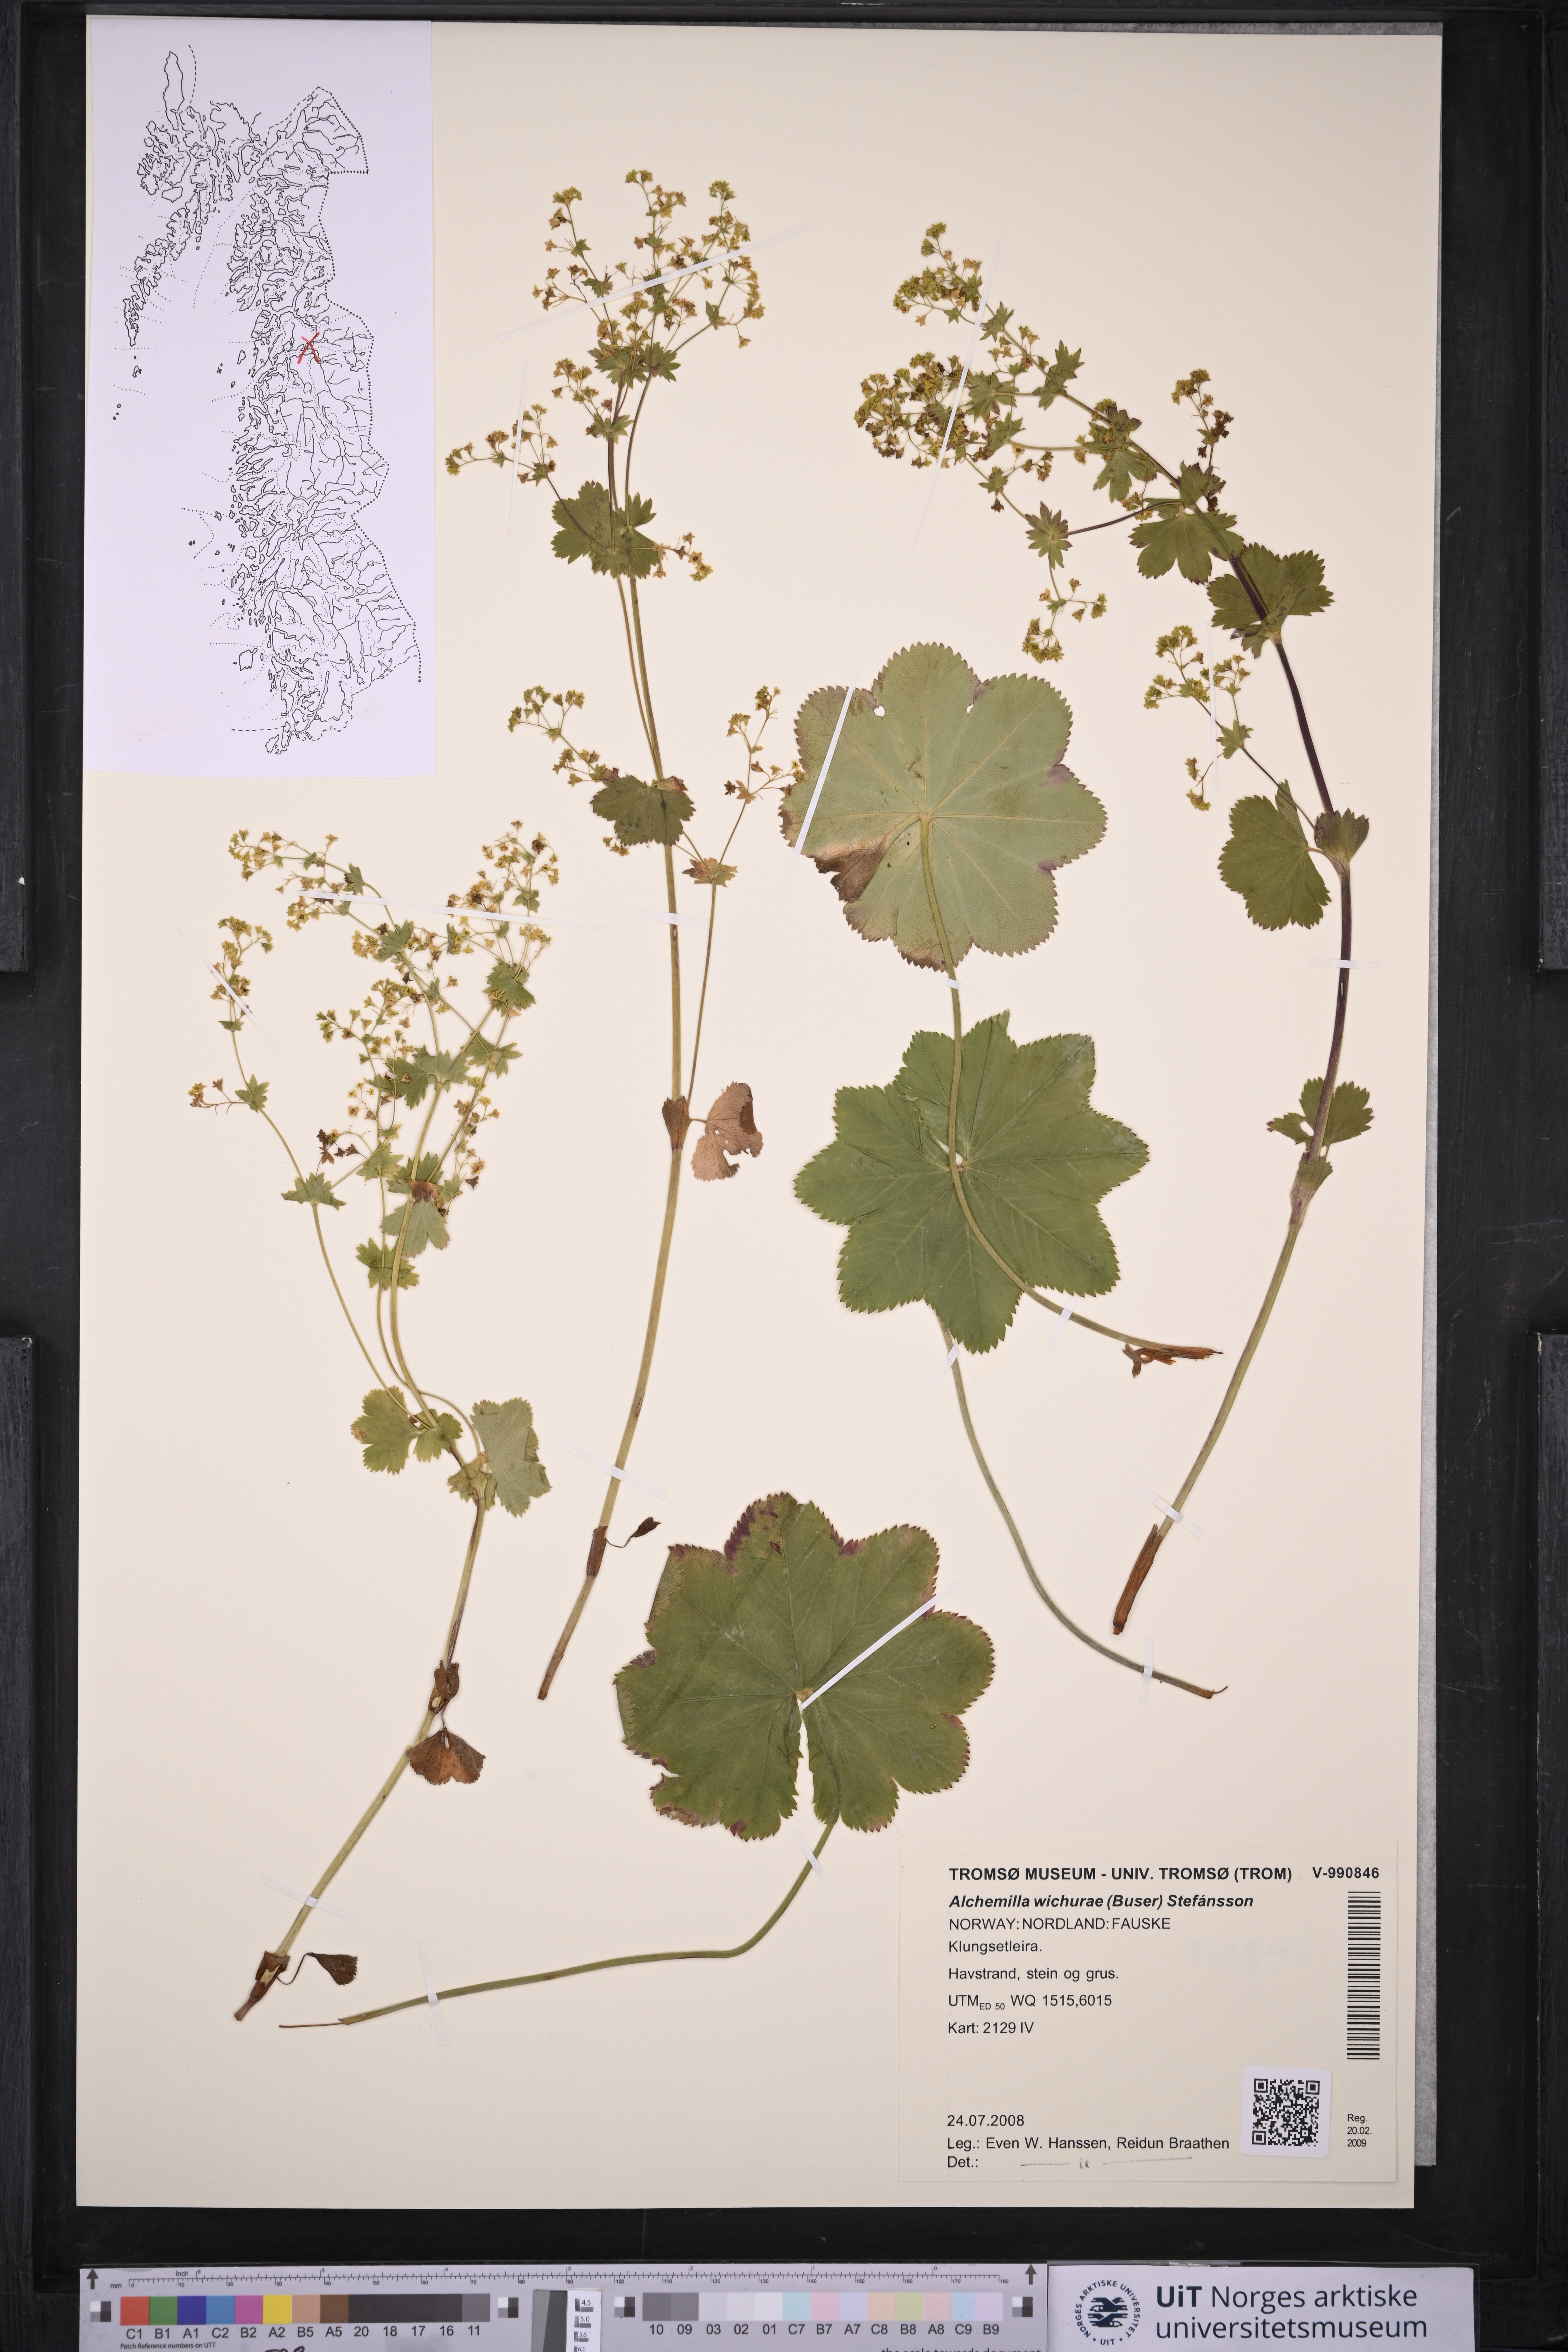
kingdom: Plantae
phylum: Tracheophyta
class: Magnoliopsida
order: Rosales
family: Rosaceae
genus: Alchemilla
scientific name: Alchemilla wichurae
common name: Rock lady's mantle
